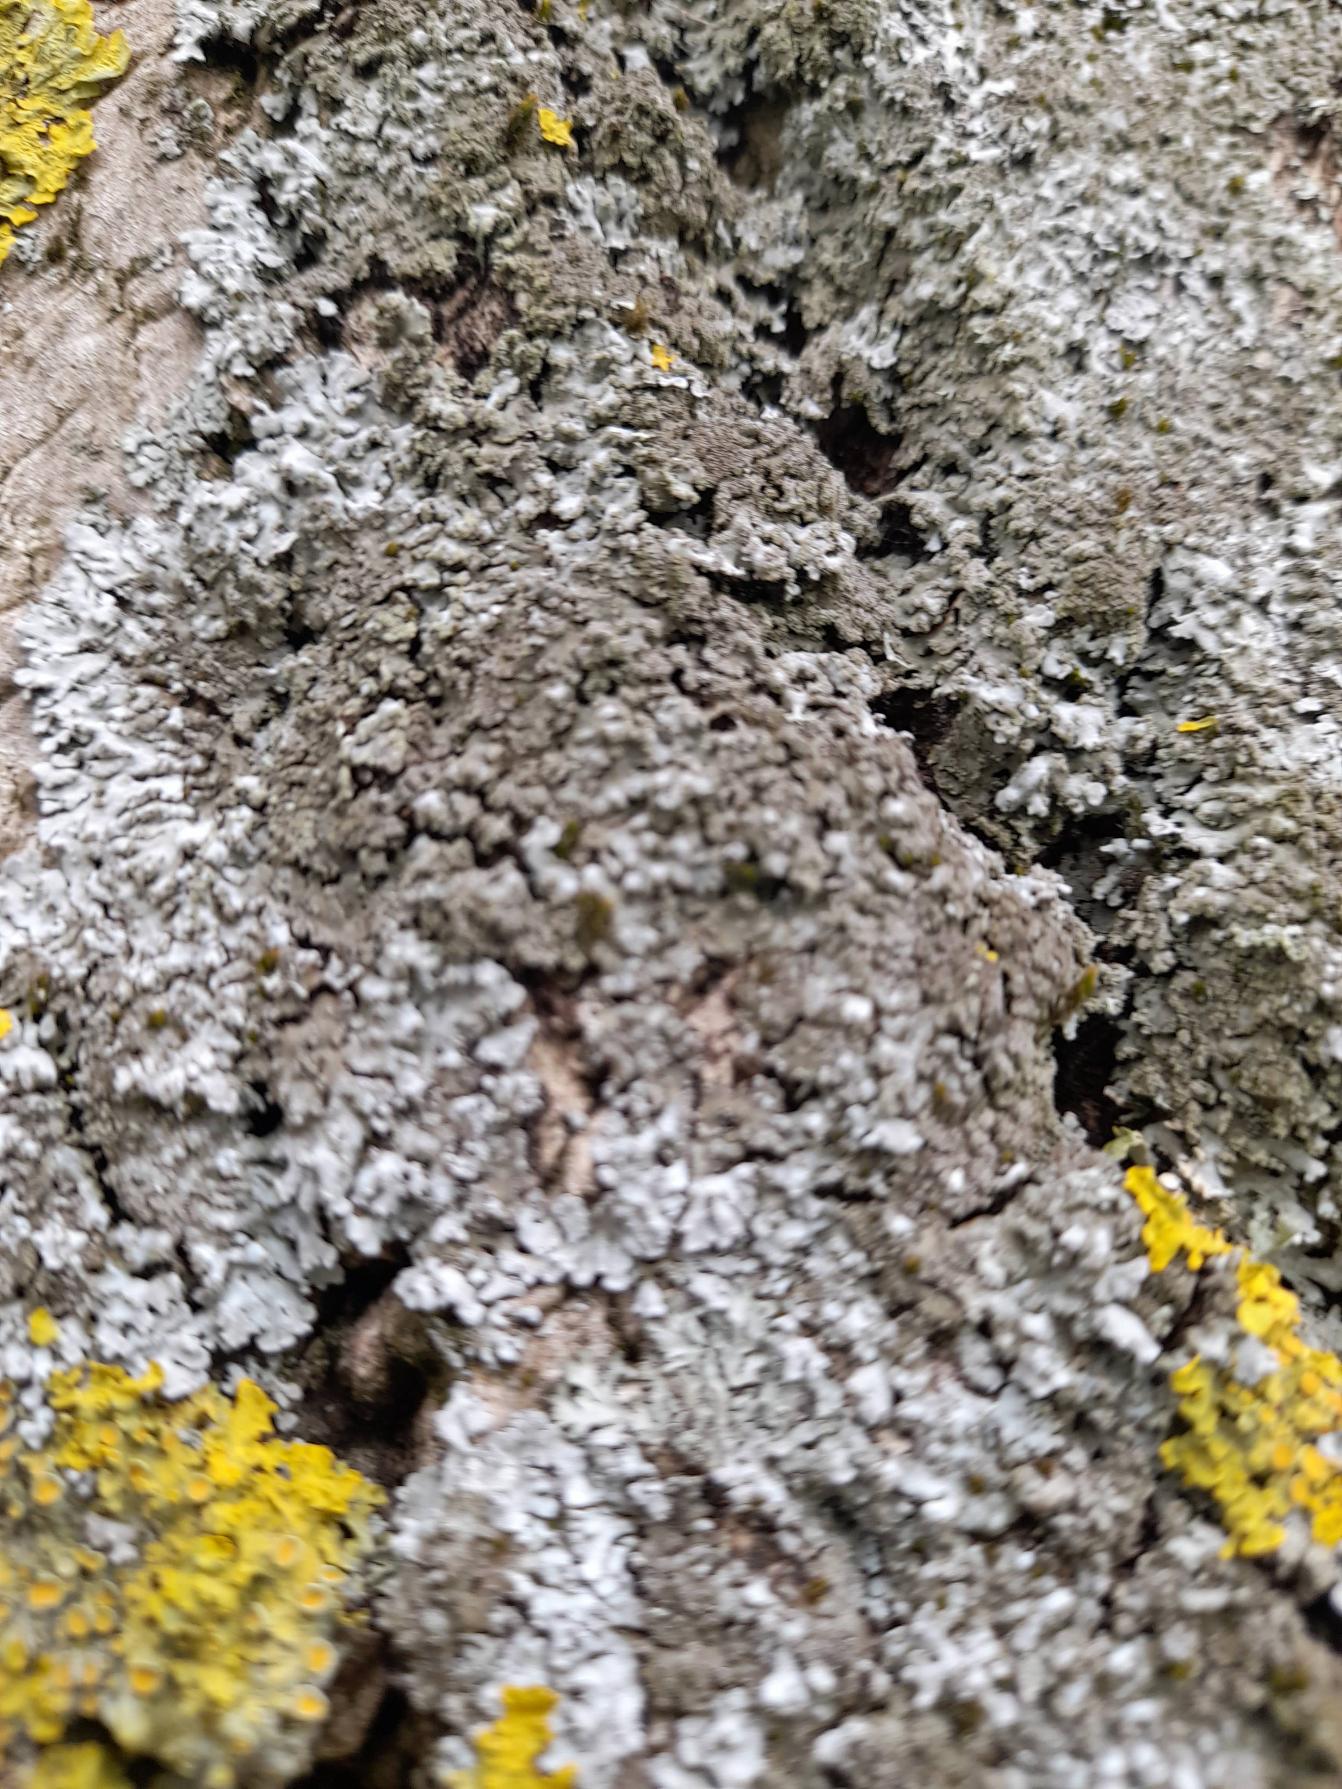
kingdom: Fungi
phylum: Ascomycota
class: Lecanoromycetes
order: Caliciales
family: Physciaceae
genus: Physconia
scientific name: Physconia
